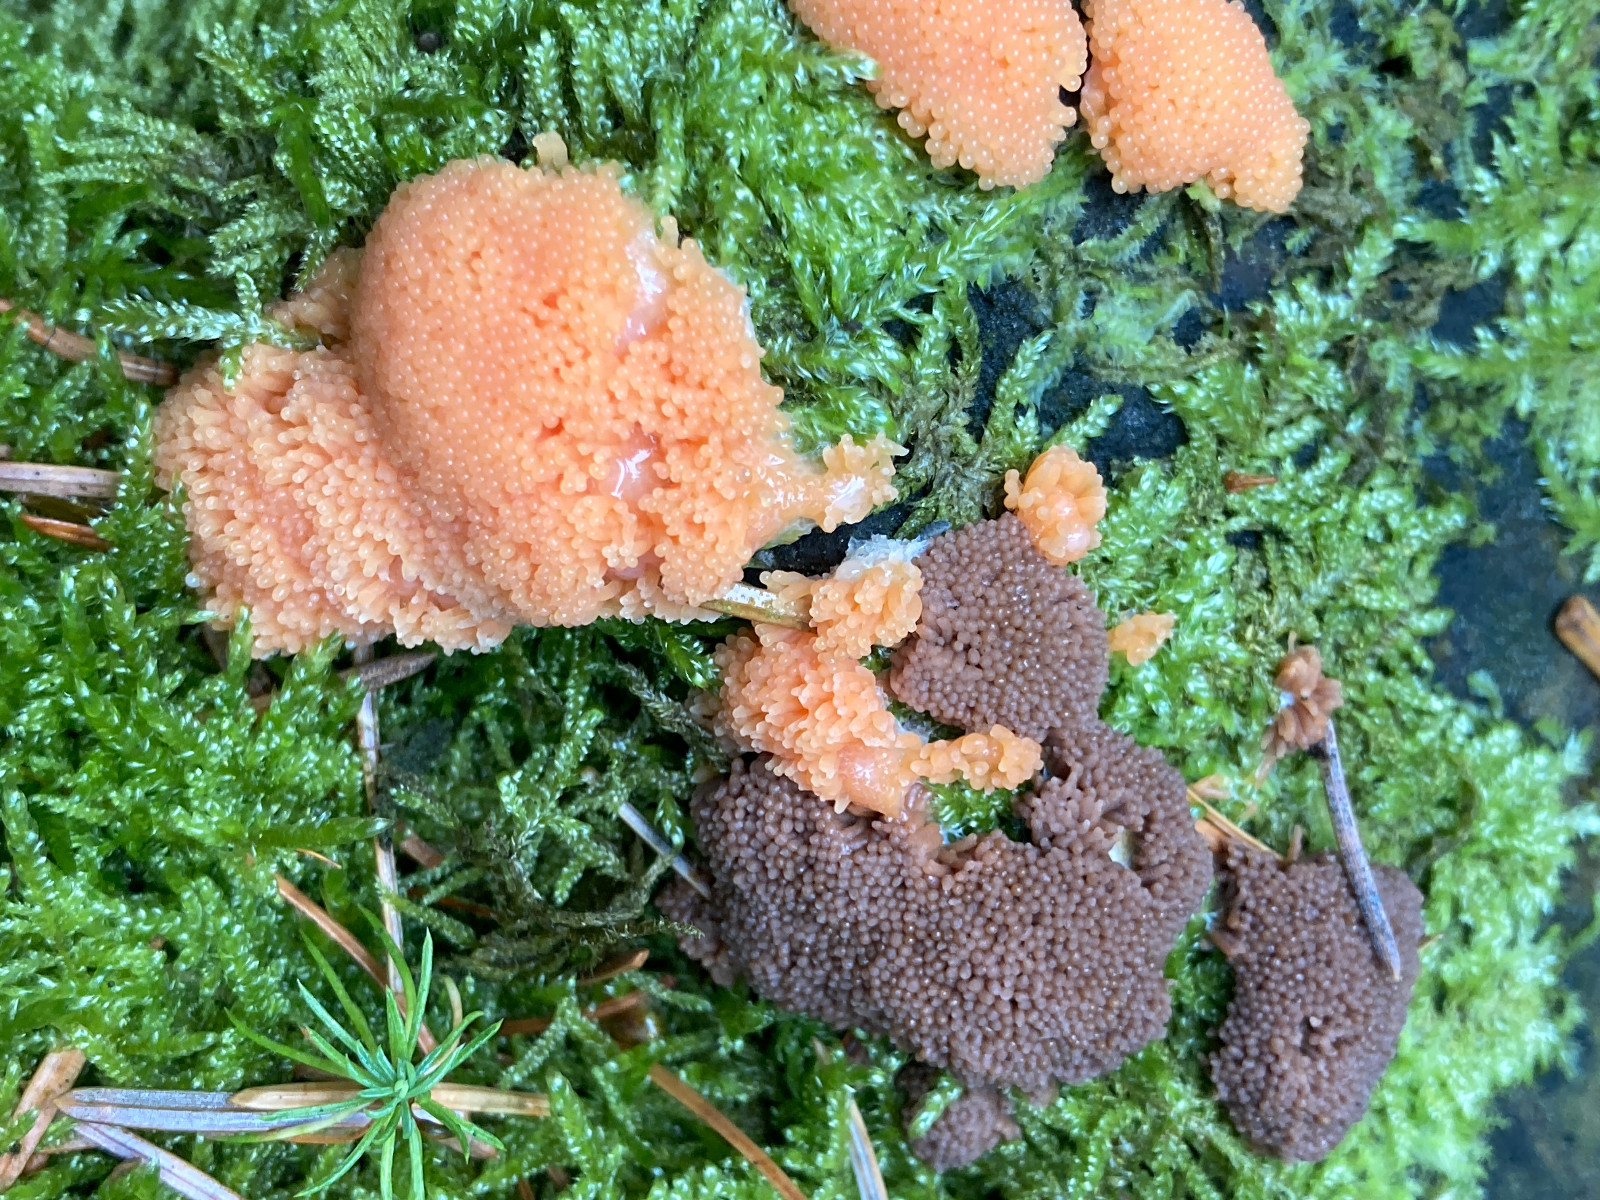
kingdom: Protozoa
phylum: Mycetozoa
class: Myxomycetes
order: Cribrariales
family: Tubiferaceae
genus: Tubifera
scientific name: Tubifera ferruginosa
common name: kanel-støvrør
